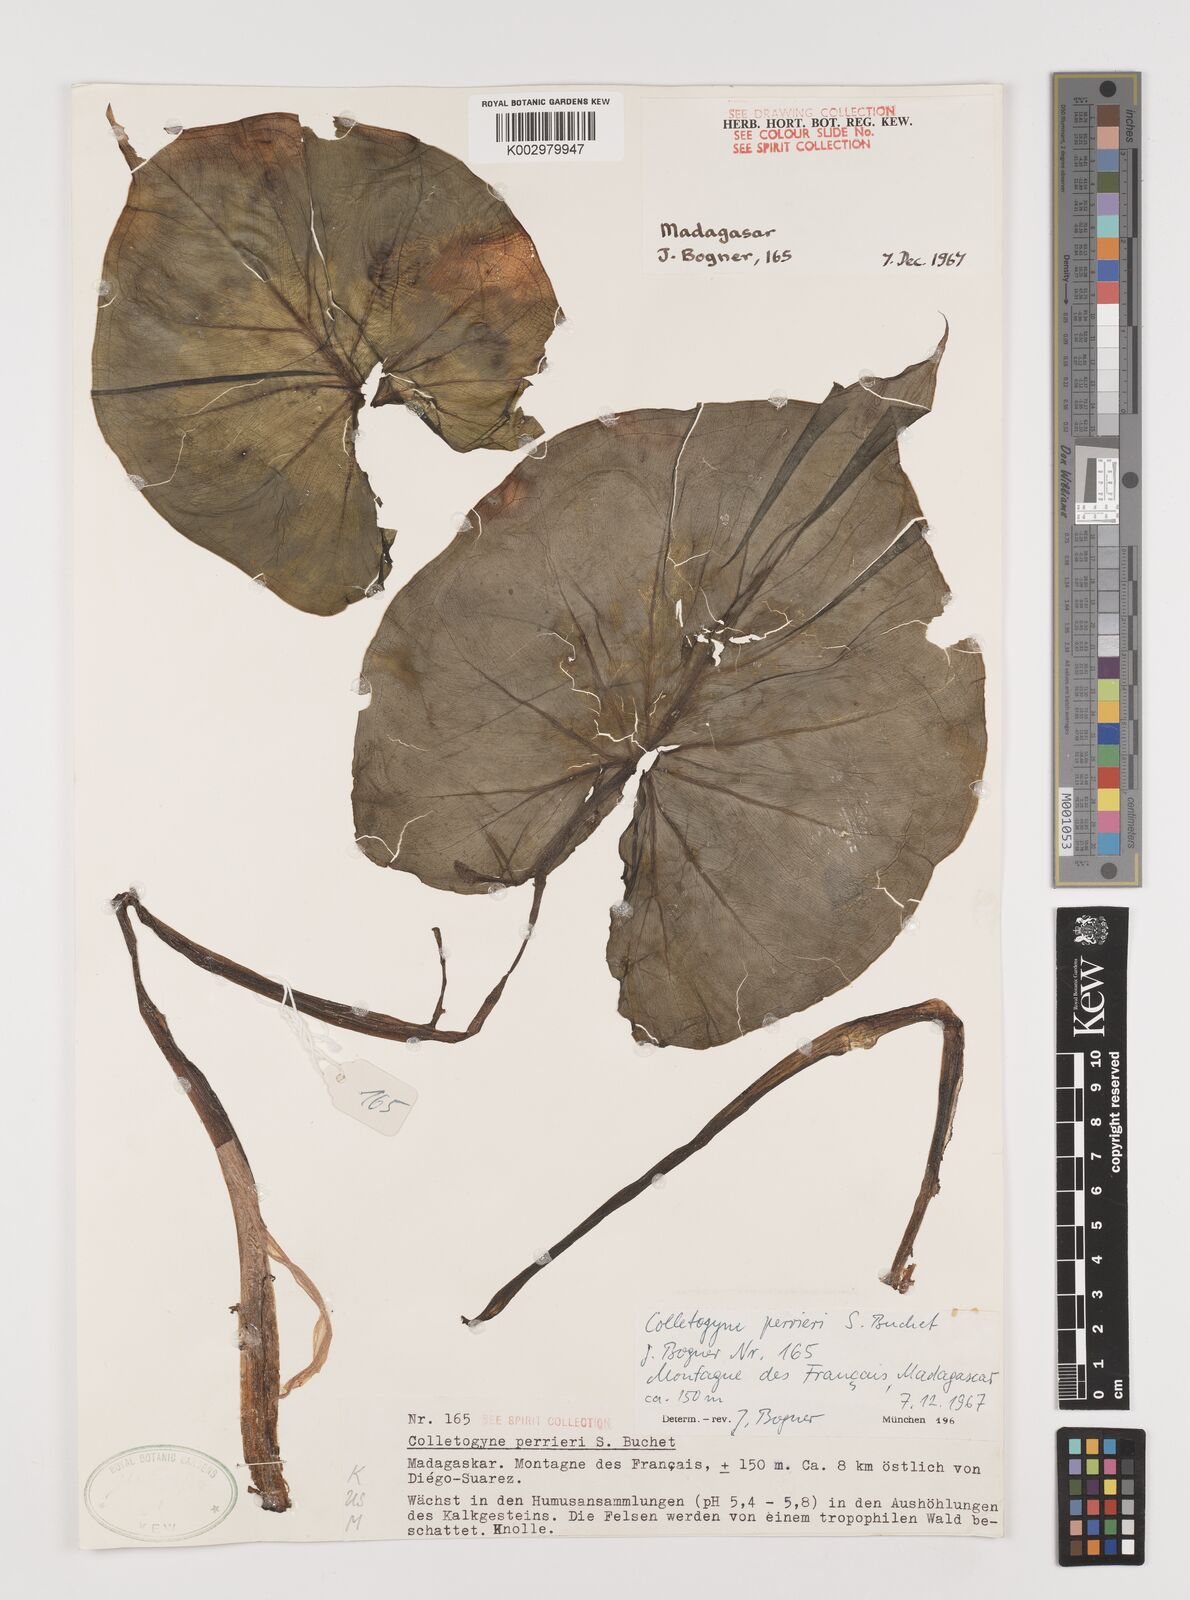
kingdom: Plantae
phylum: Tracheophyta
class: Liliopsida
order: Alismatales
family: Araceae
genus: Colletogyne
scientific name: Colletogyne perrieri
